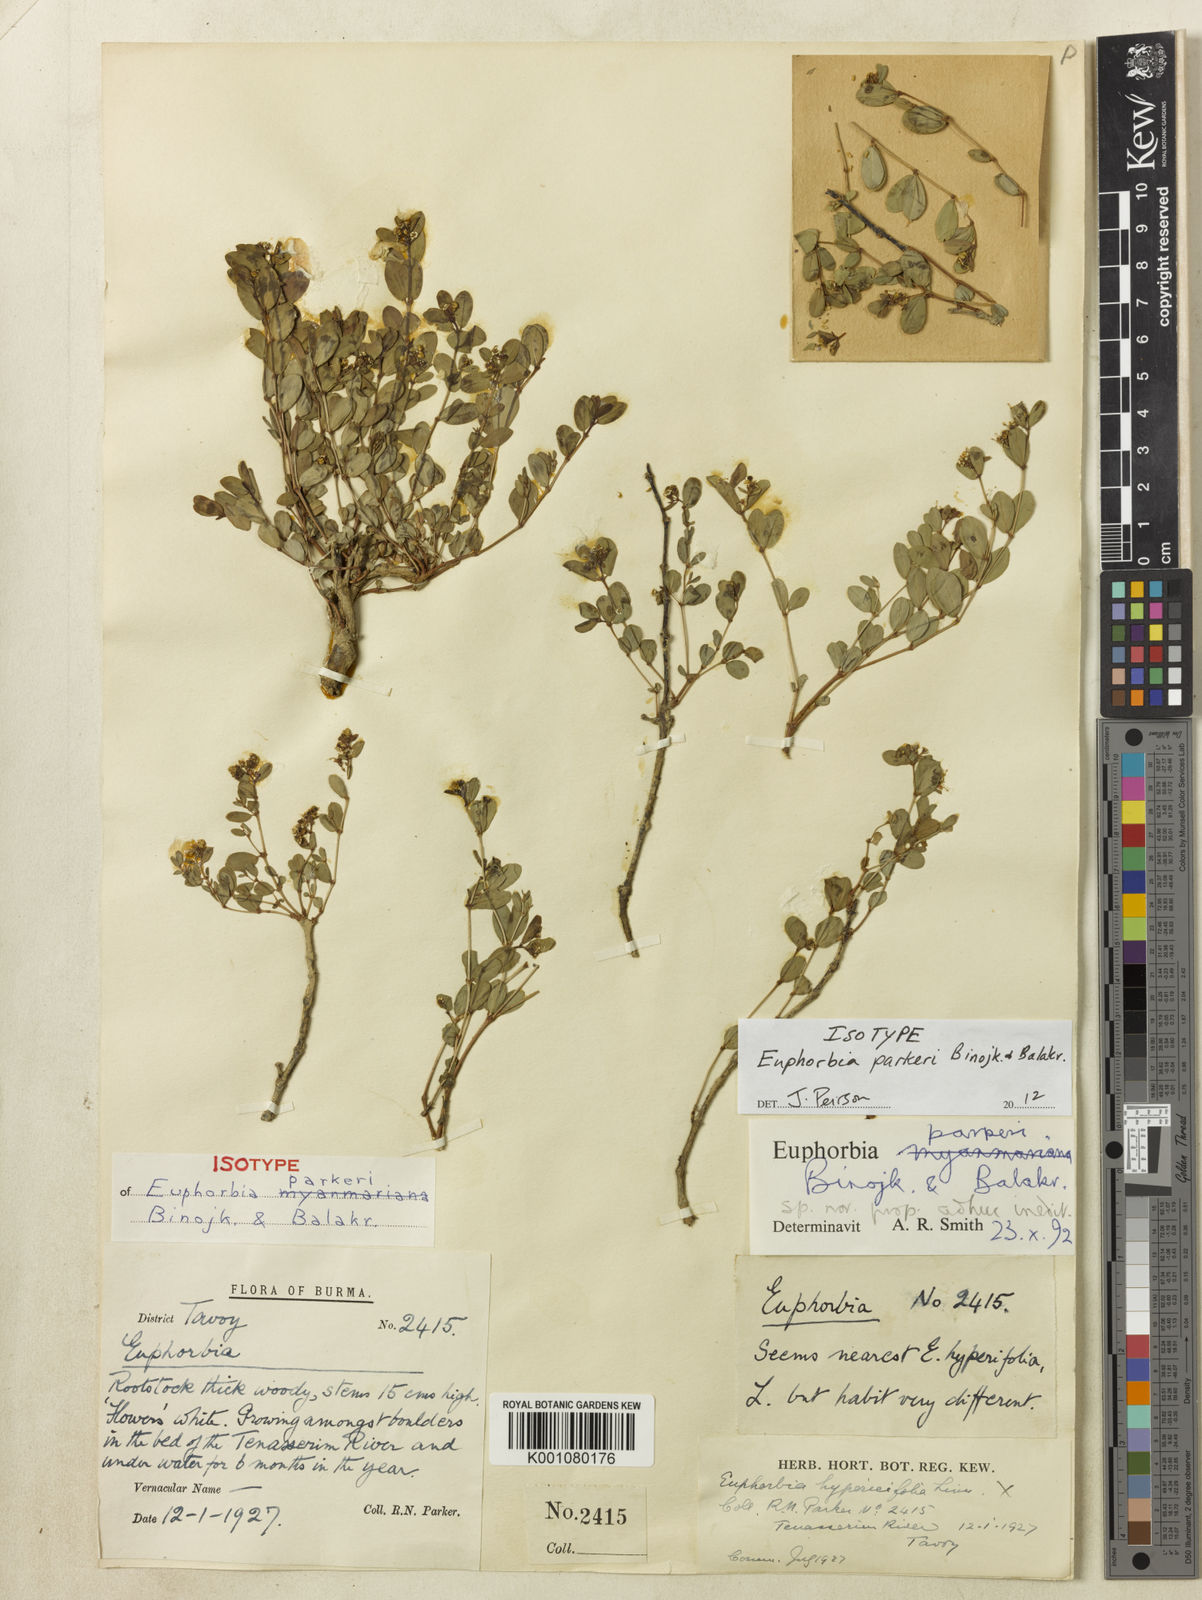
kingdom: Plantae
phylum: Tracheophyta
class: Magnoliopsida
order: Malpighiales
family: Euphorbiaceae
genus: Euphorbia
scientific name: Euphorbia parkeri
